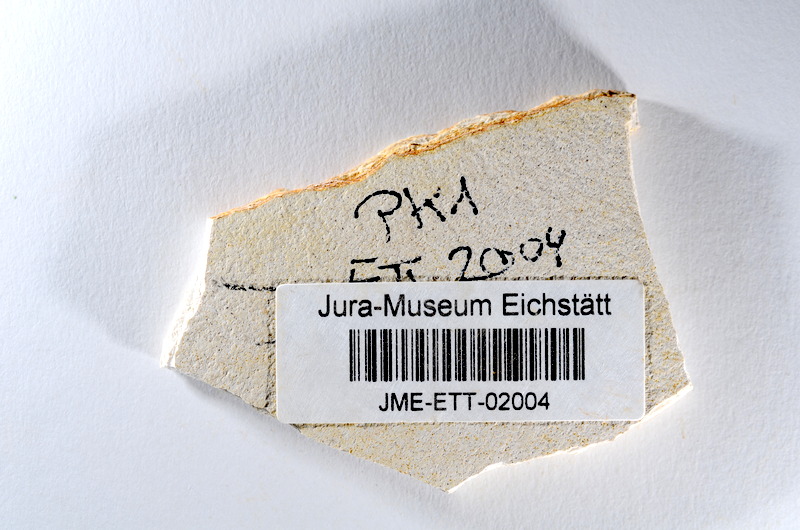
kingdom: Animalia
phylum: Chordata
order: Salmoniformes
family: Orthogonikleithridae
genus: Orthogonikleithrus
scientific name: Orthogonikleithrus hoelli
